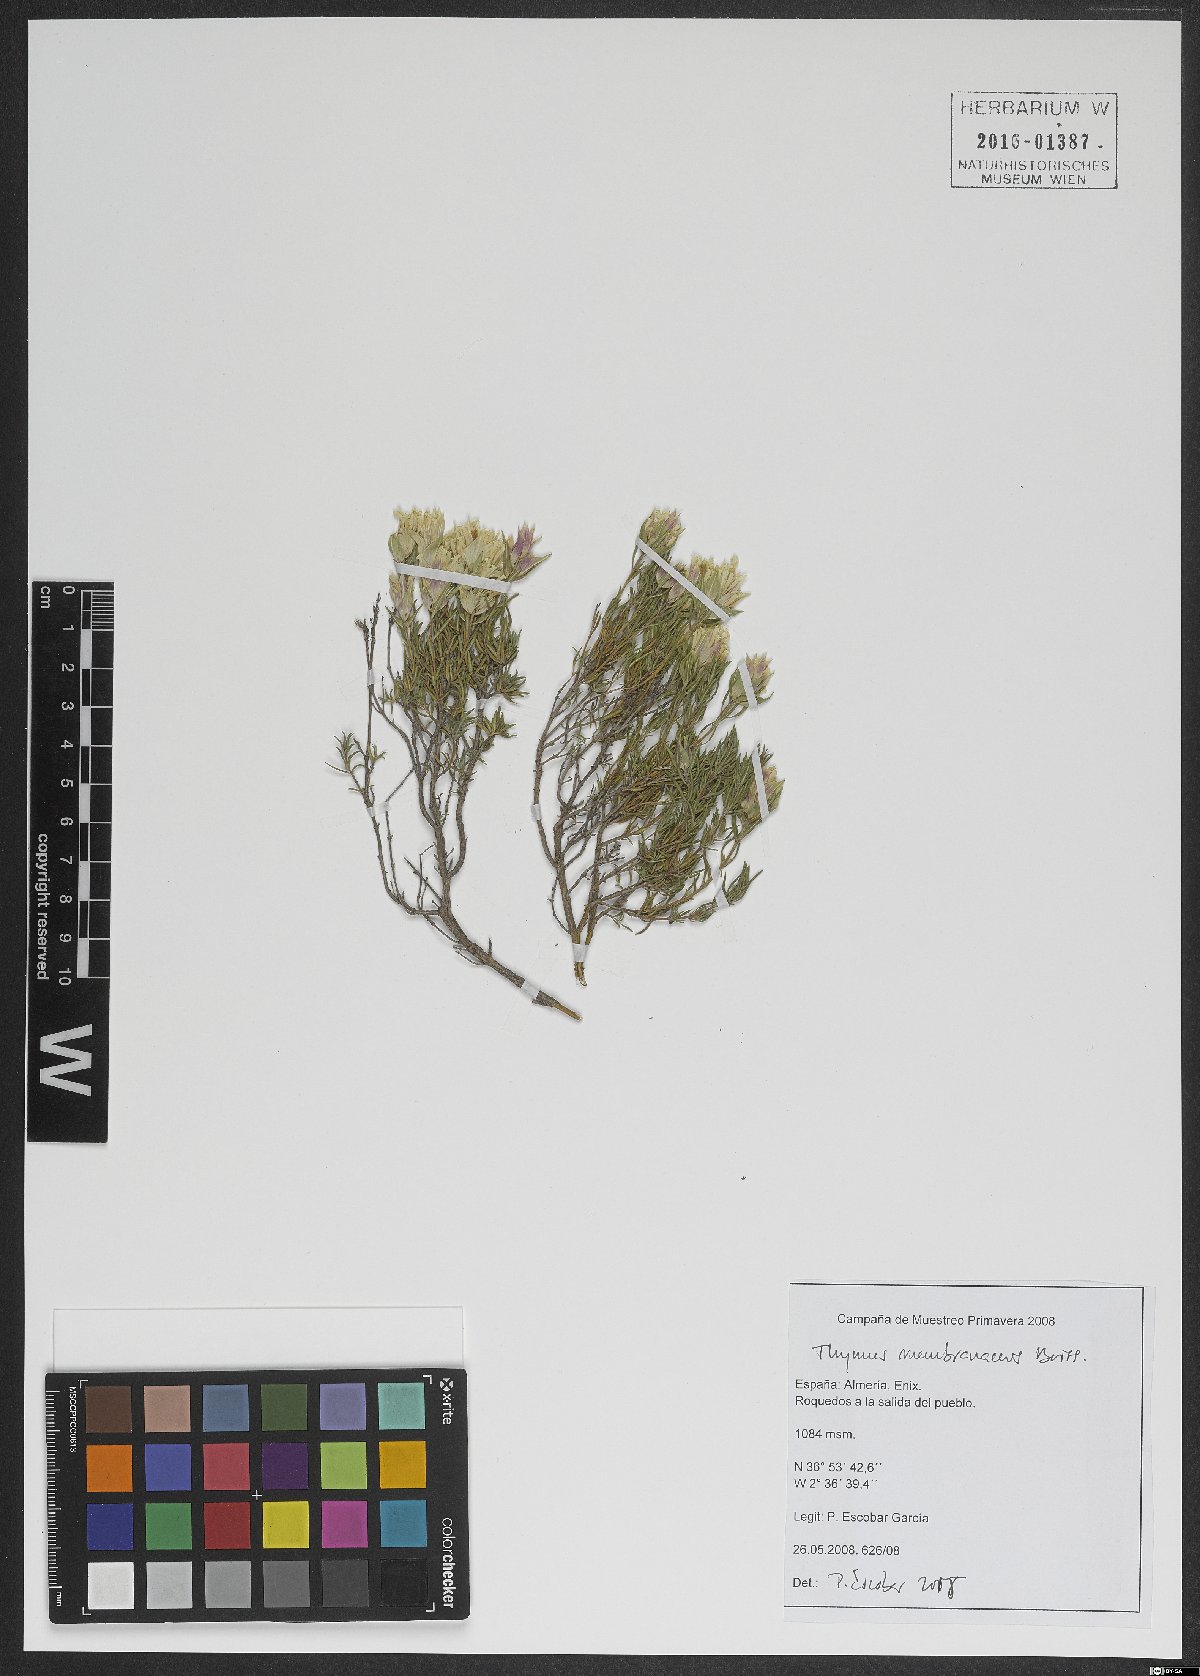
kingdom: Plantae
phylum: Tracheophyta
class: Magnoliopsida
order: Lamiales
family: Lamiaceae
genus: Thymus
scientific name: Thymus membranaceus
